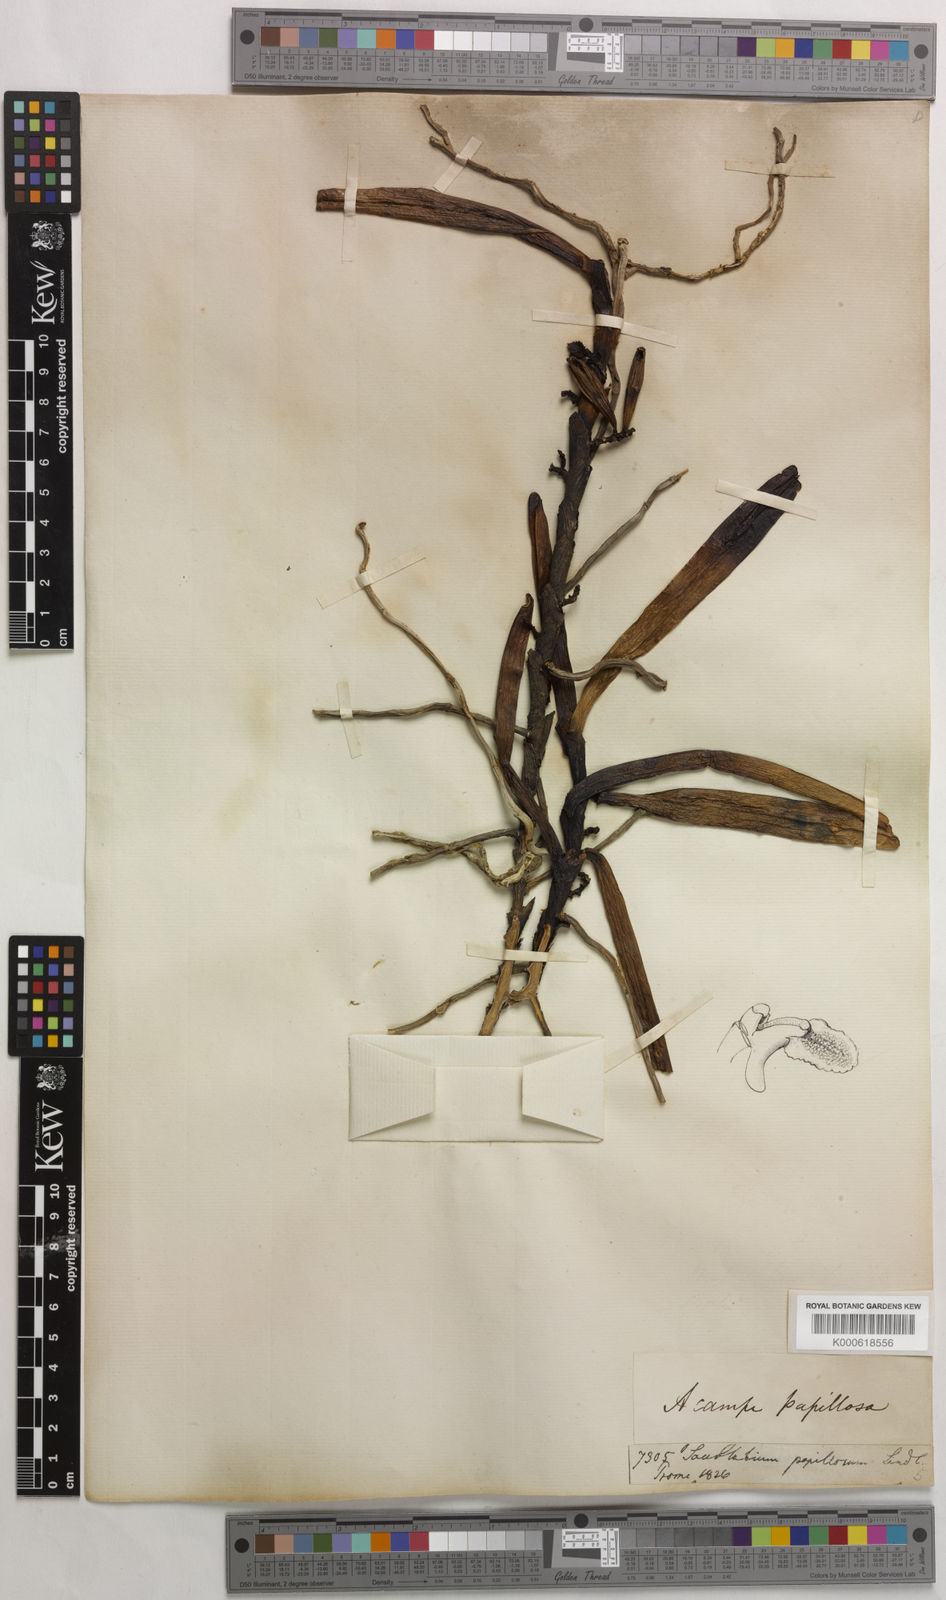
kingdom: Plantae
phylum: Tracheophyta
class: Liliopsida
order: Asparagales
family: Orchidaceae
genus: Acampe
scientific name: Acampe praemorsa
